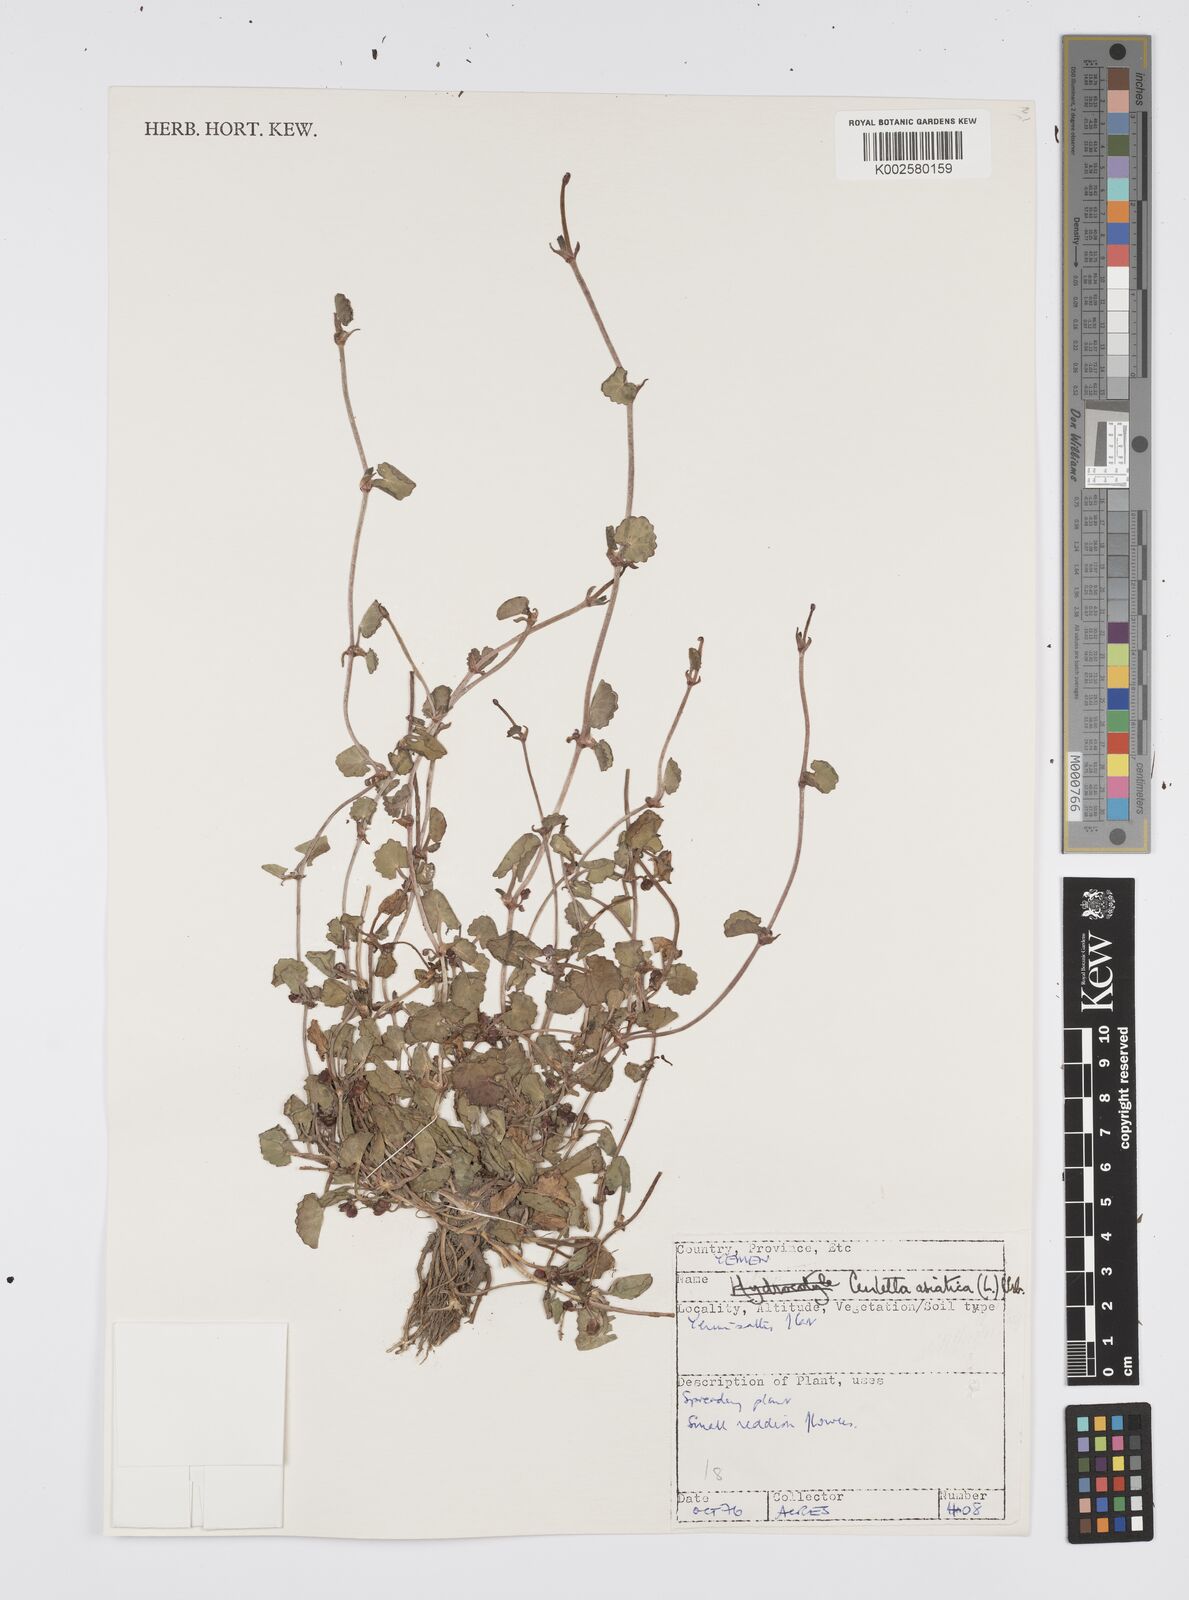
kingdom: Plantae
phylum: Tracheophyta
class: Magnoliopsida
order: Apiales
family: Apiaceae
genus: Centella
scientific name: Centella asiatica
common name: Spadeleaf
